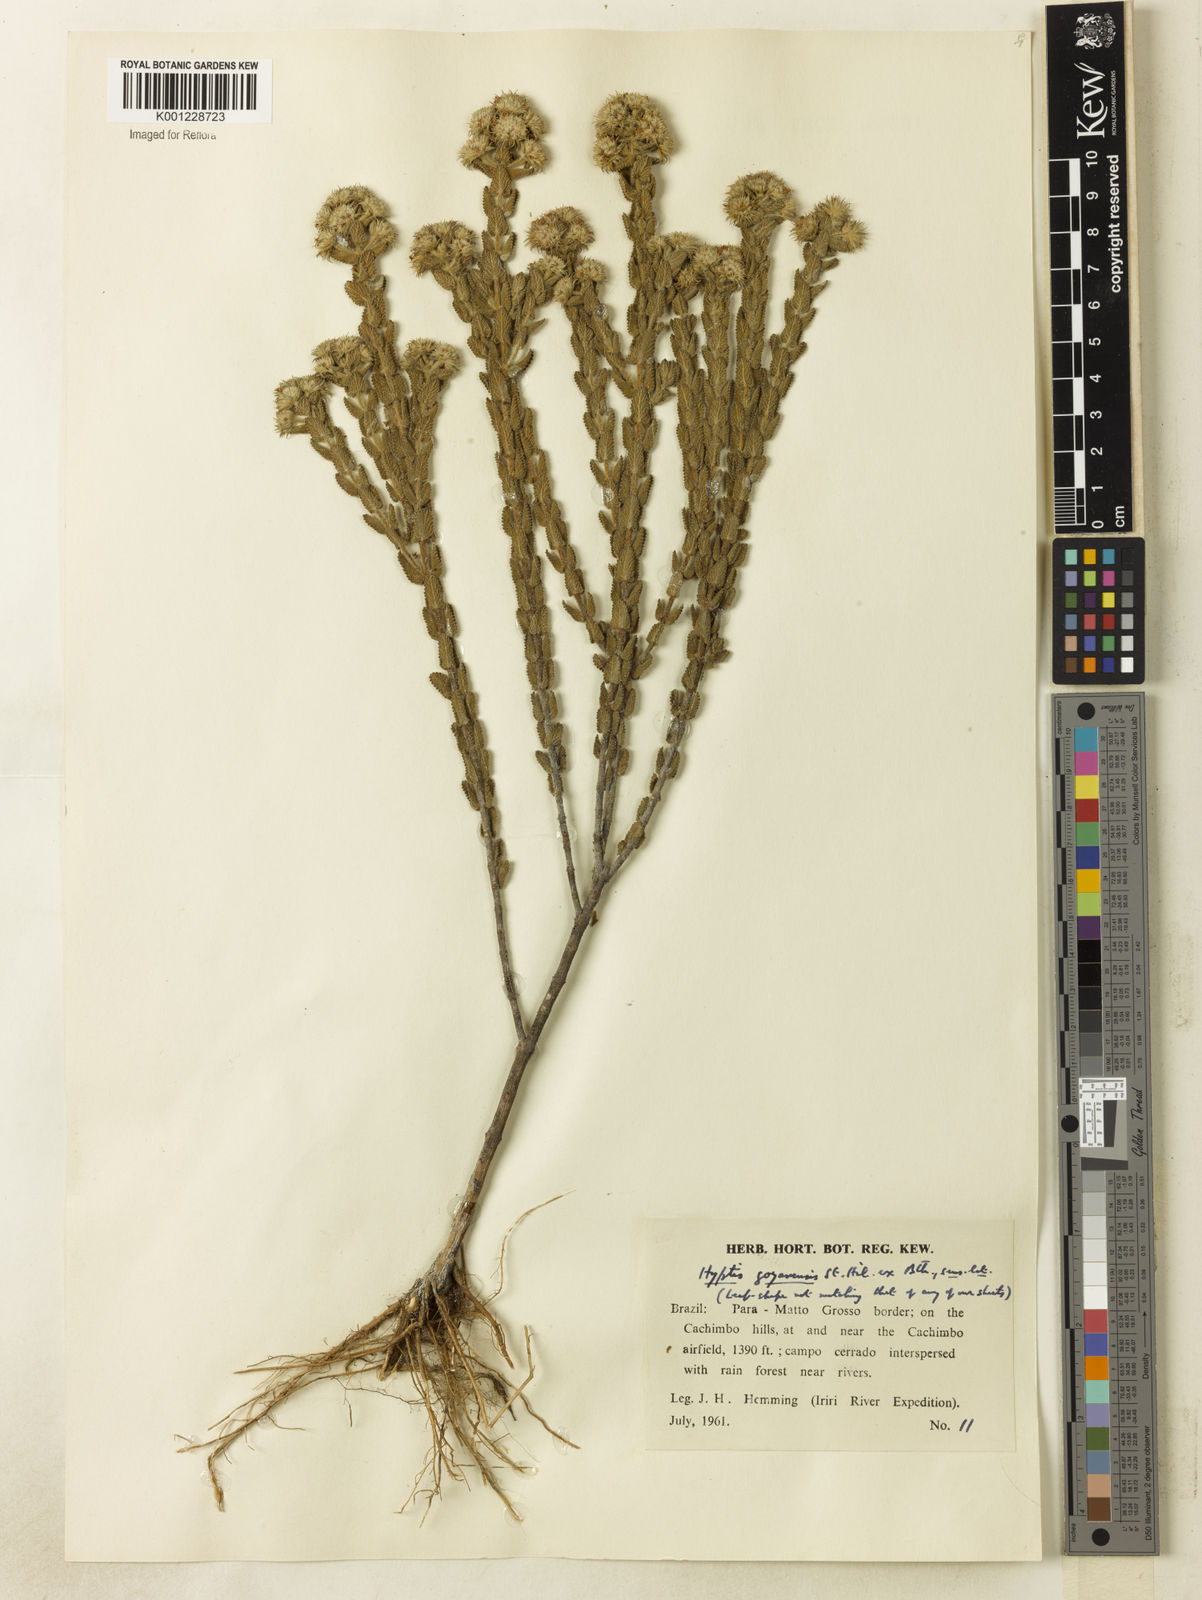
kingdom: Plantae
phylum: Tracheophyta
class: Magnoliopsida
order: Lamiales
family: Lamiaceae
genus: Hyptis
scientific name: Hyptis crenata
